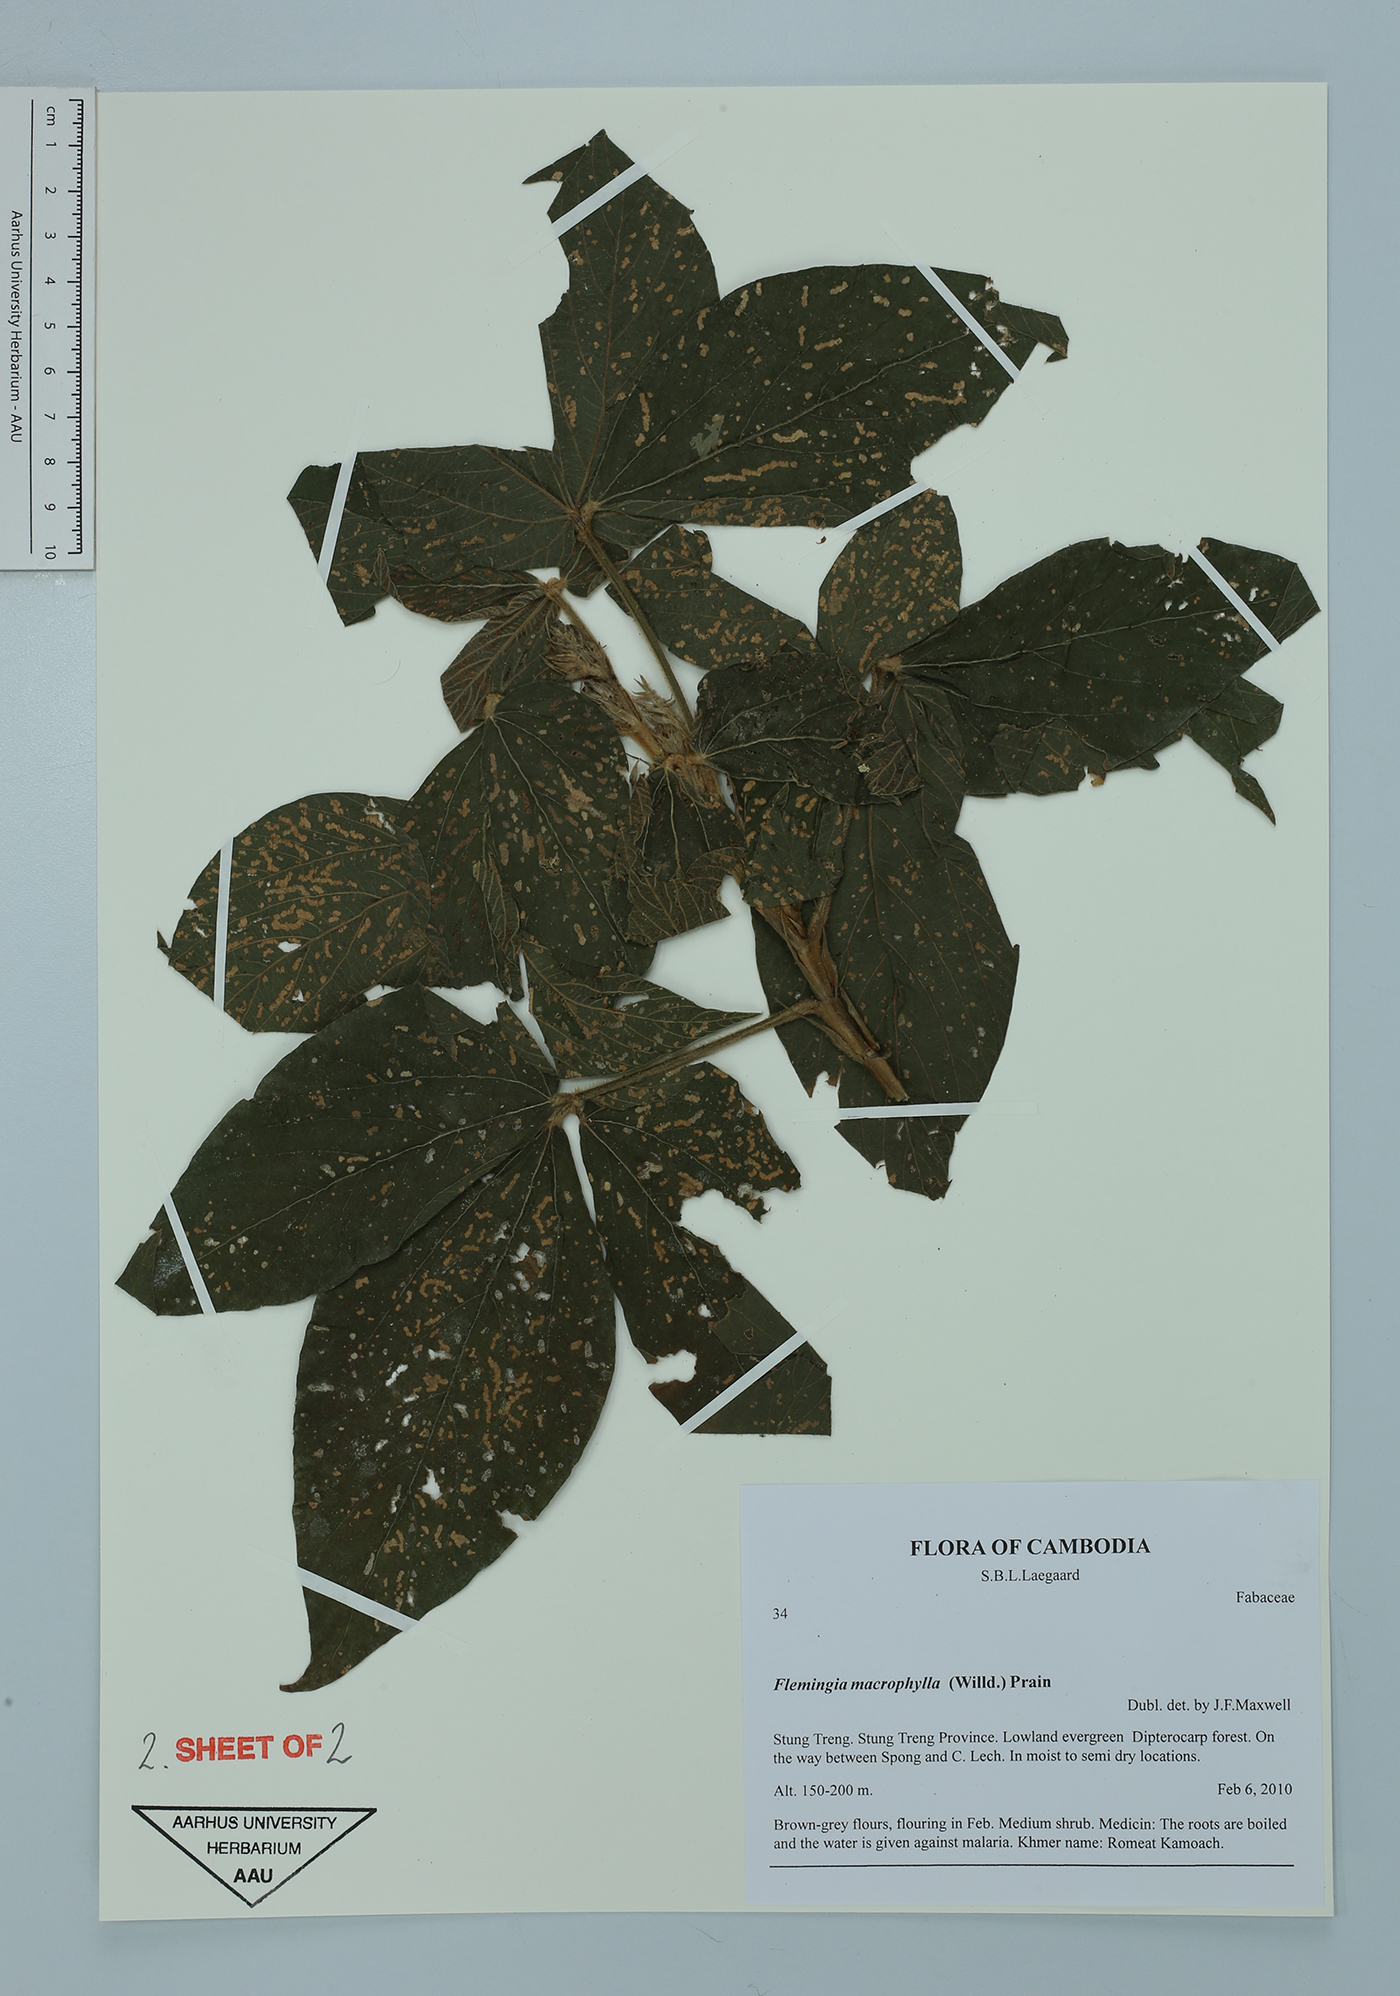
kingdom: Plantae
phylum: Tracheophyta
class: Magnoliopsida
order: Fabales
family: Fabaceae
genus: Flemingia
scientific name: Flemingia macrophylla
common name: Flemingia
